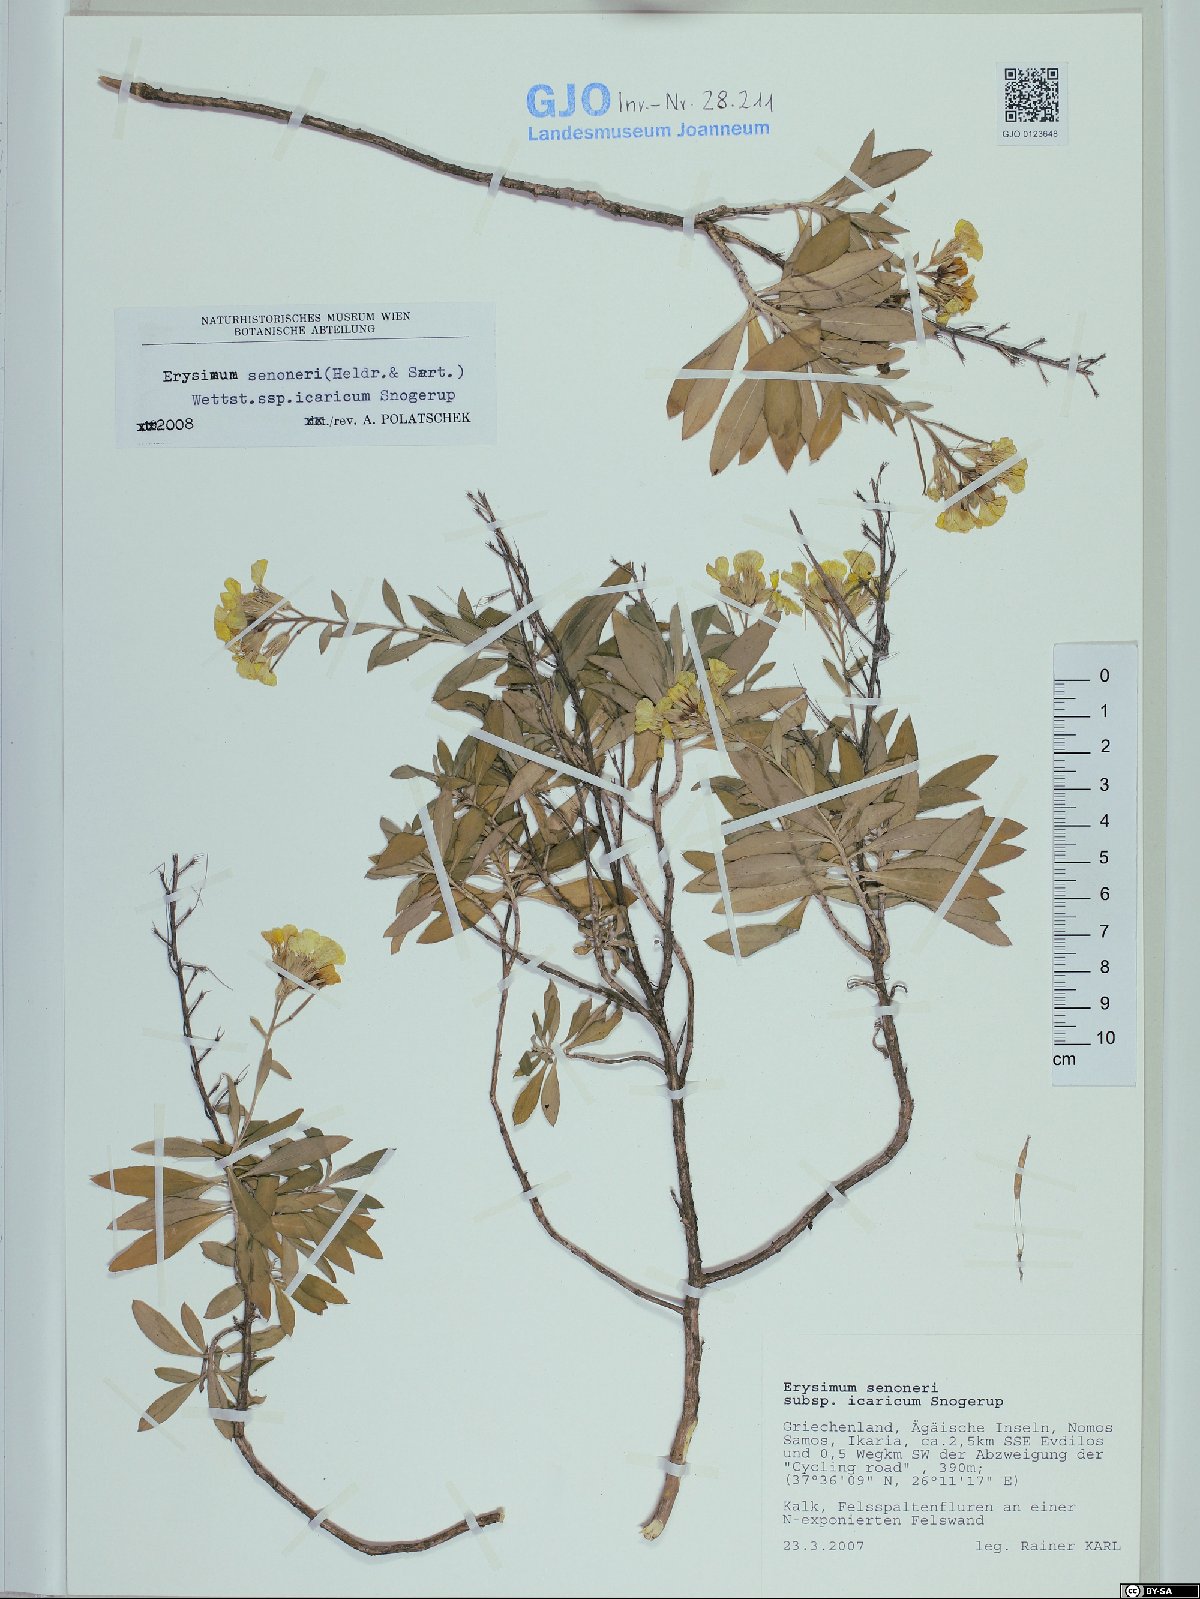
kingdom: Plantae
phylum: Tracheophyta
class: Magnoliopsida
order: Brassicales
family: Brassicaceae
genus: Erysimum
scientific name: Erysimum senoneri
